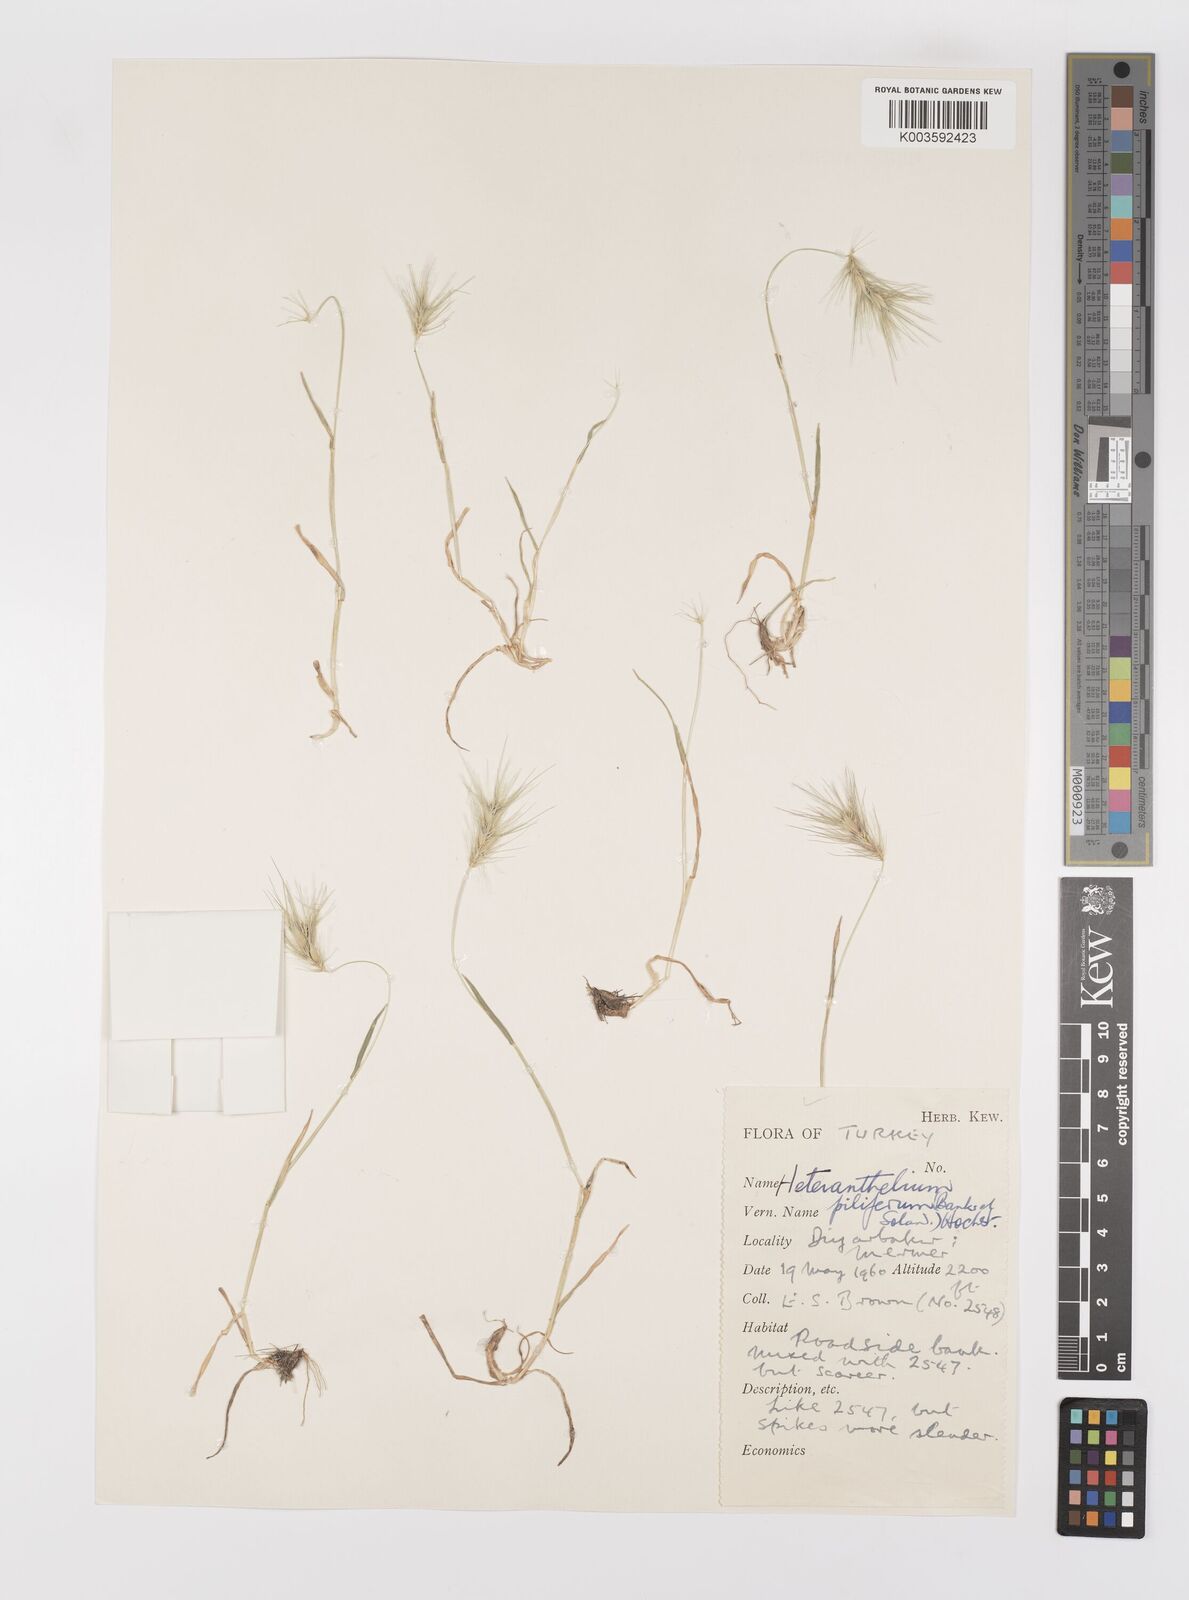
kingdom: Plantae
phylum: Tracheophyta
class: Liliopsida
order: Poales
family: Poaceae
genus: Heteranthelium
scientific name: Heteranthelium piliferum
